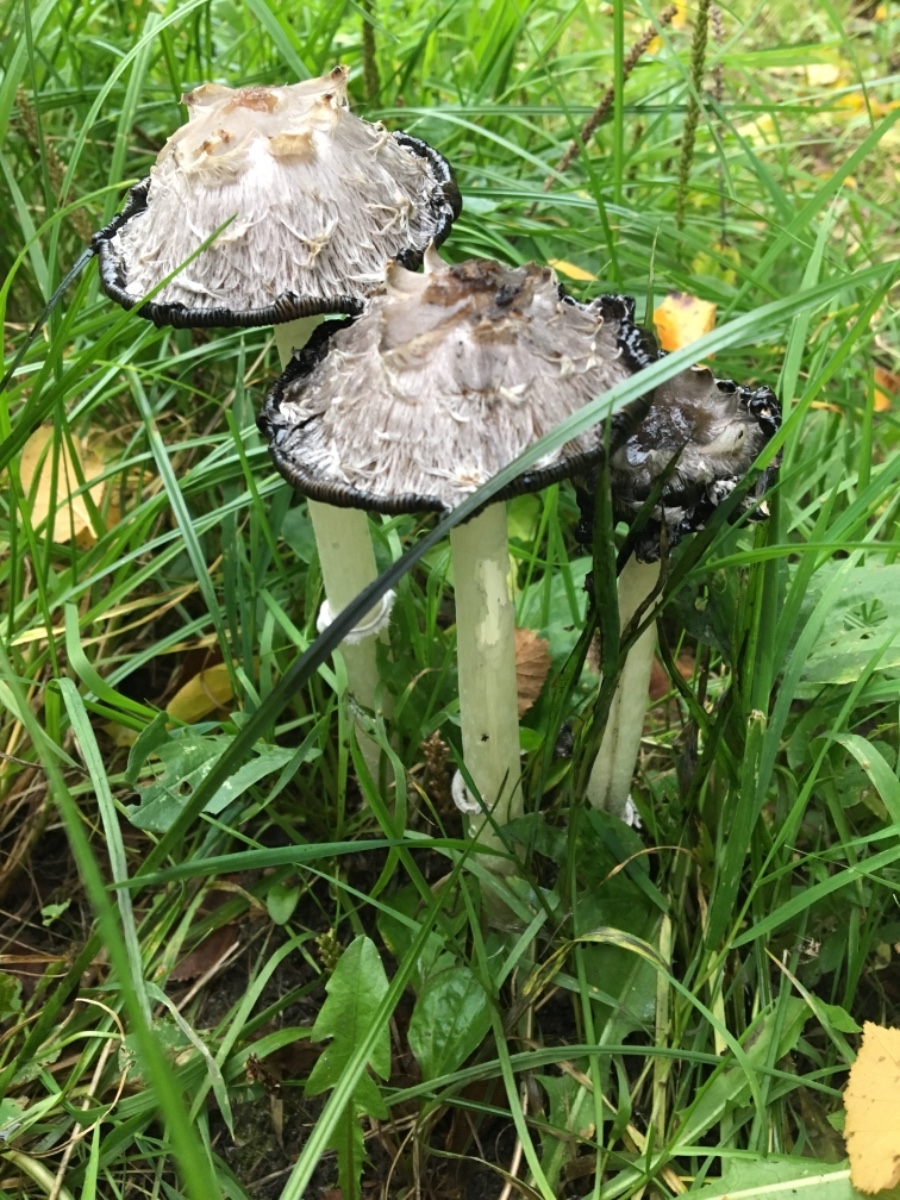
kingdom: Fungi
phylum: Basidiomycota
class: Agaricomycetes
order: Agaricales
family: Agaricaceae
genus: Coprinus
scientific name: Coprinus comatus
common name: stor parykhat
